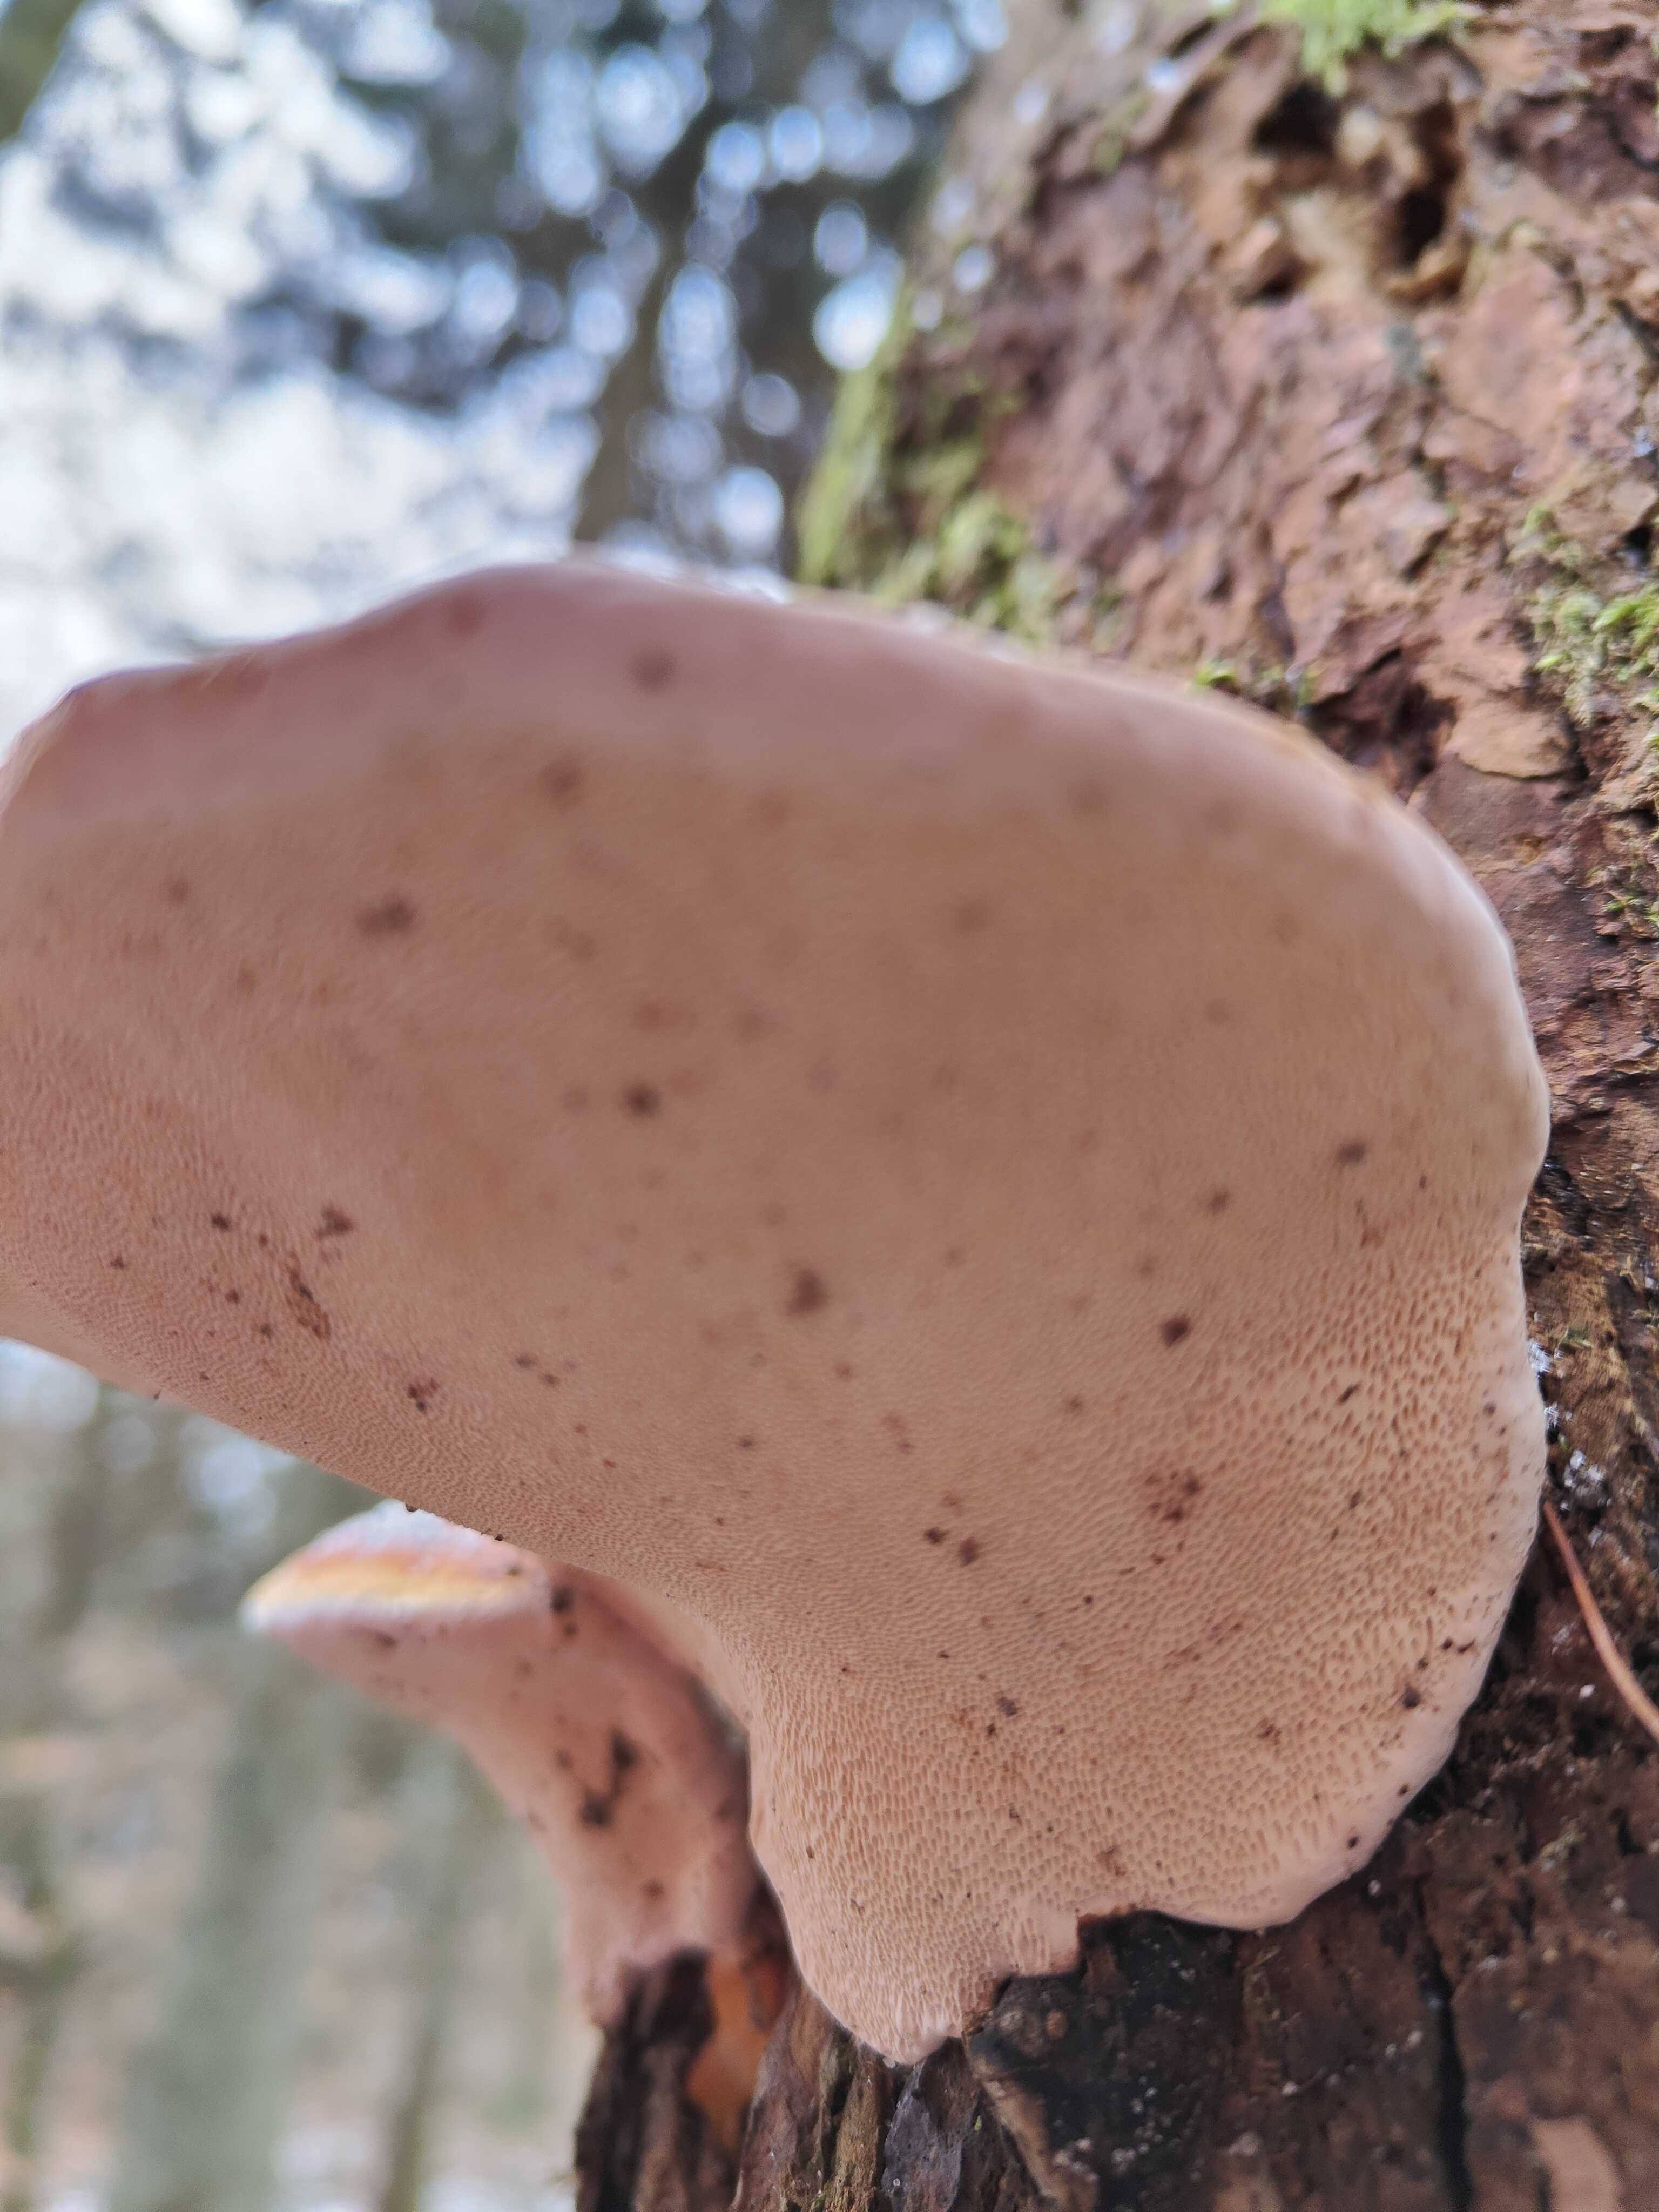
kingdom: Fungi
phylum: Basidiomycota
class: Agaricomycetes
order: Polyporales
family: Fomitopsidaceae
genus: Fomitopsis
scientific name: Fomitopsis pinicola
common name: randbæltet hovporesvamp
